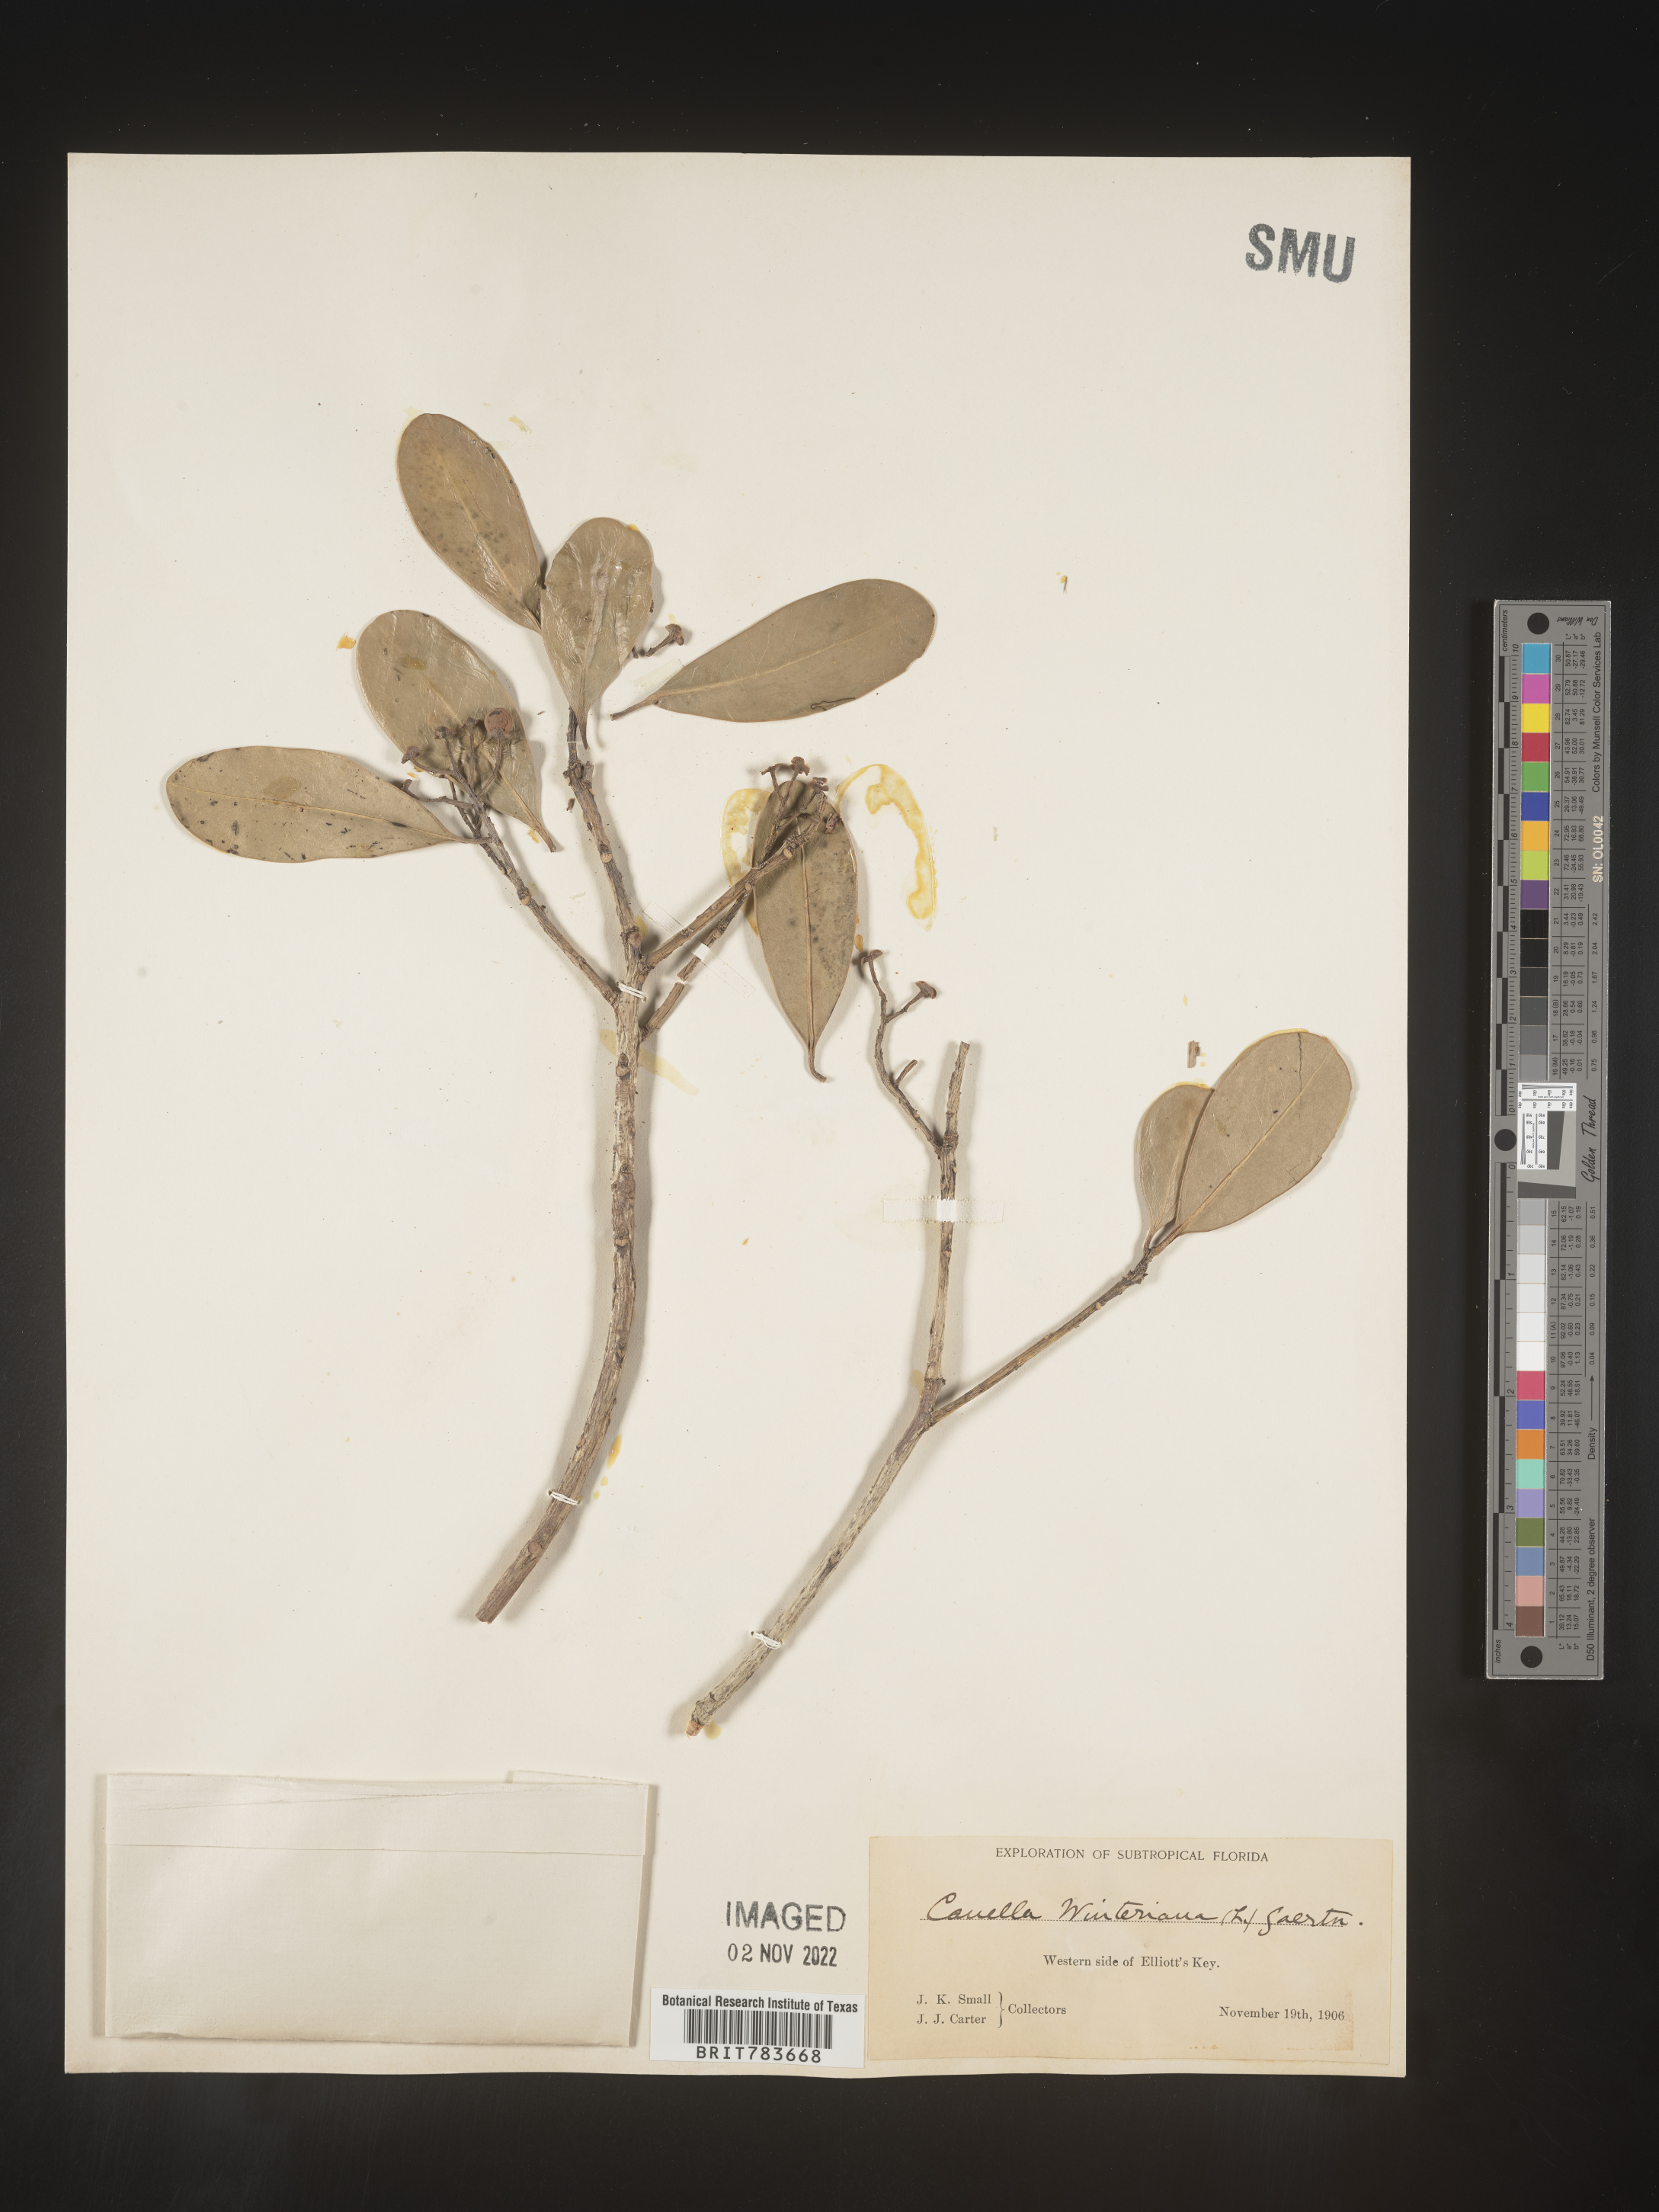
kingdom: Plantae
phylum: Tracheophyta
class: Magnoliopsida
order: Canellales
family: Canellaceae
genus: Canella
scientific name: Canella
